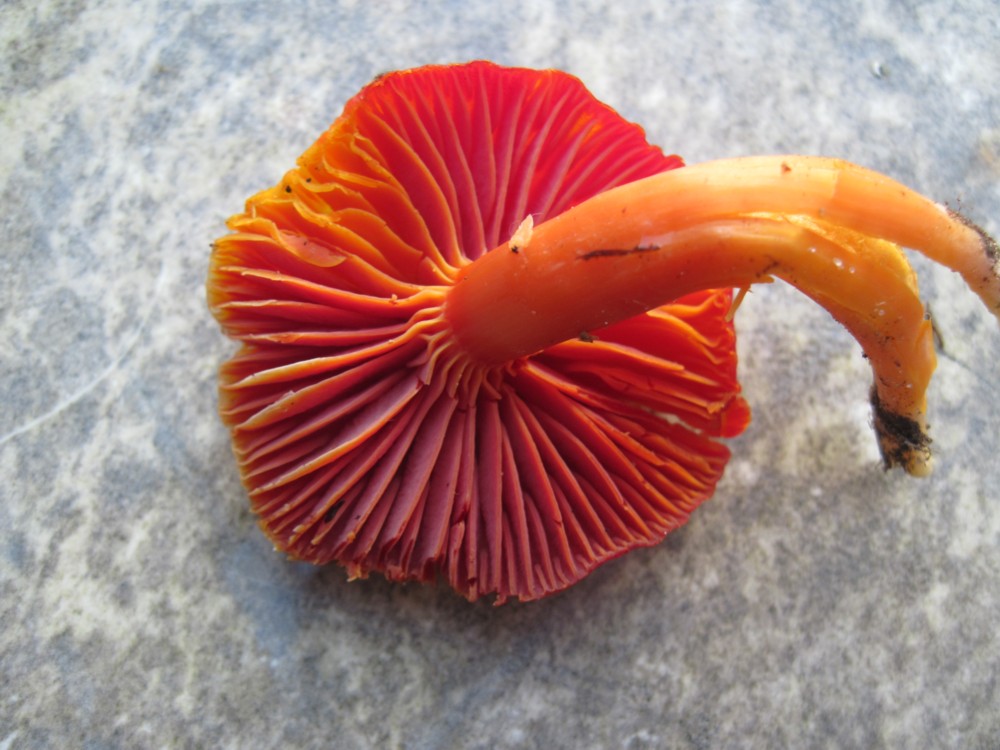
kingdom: Fungi
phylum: Basidiomycota
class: Agaricomycetes
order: Agaricales
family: Hygrophoraceae
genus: Hygrocybe
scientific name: Hygrocybe coccinea
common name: cinnober-vokshat
